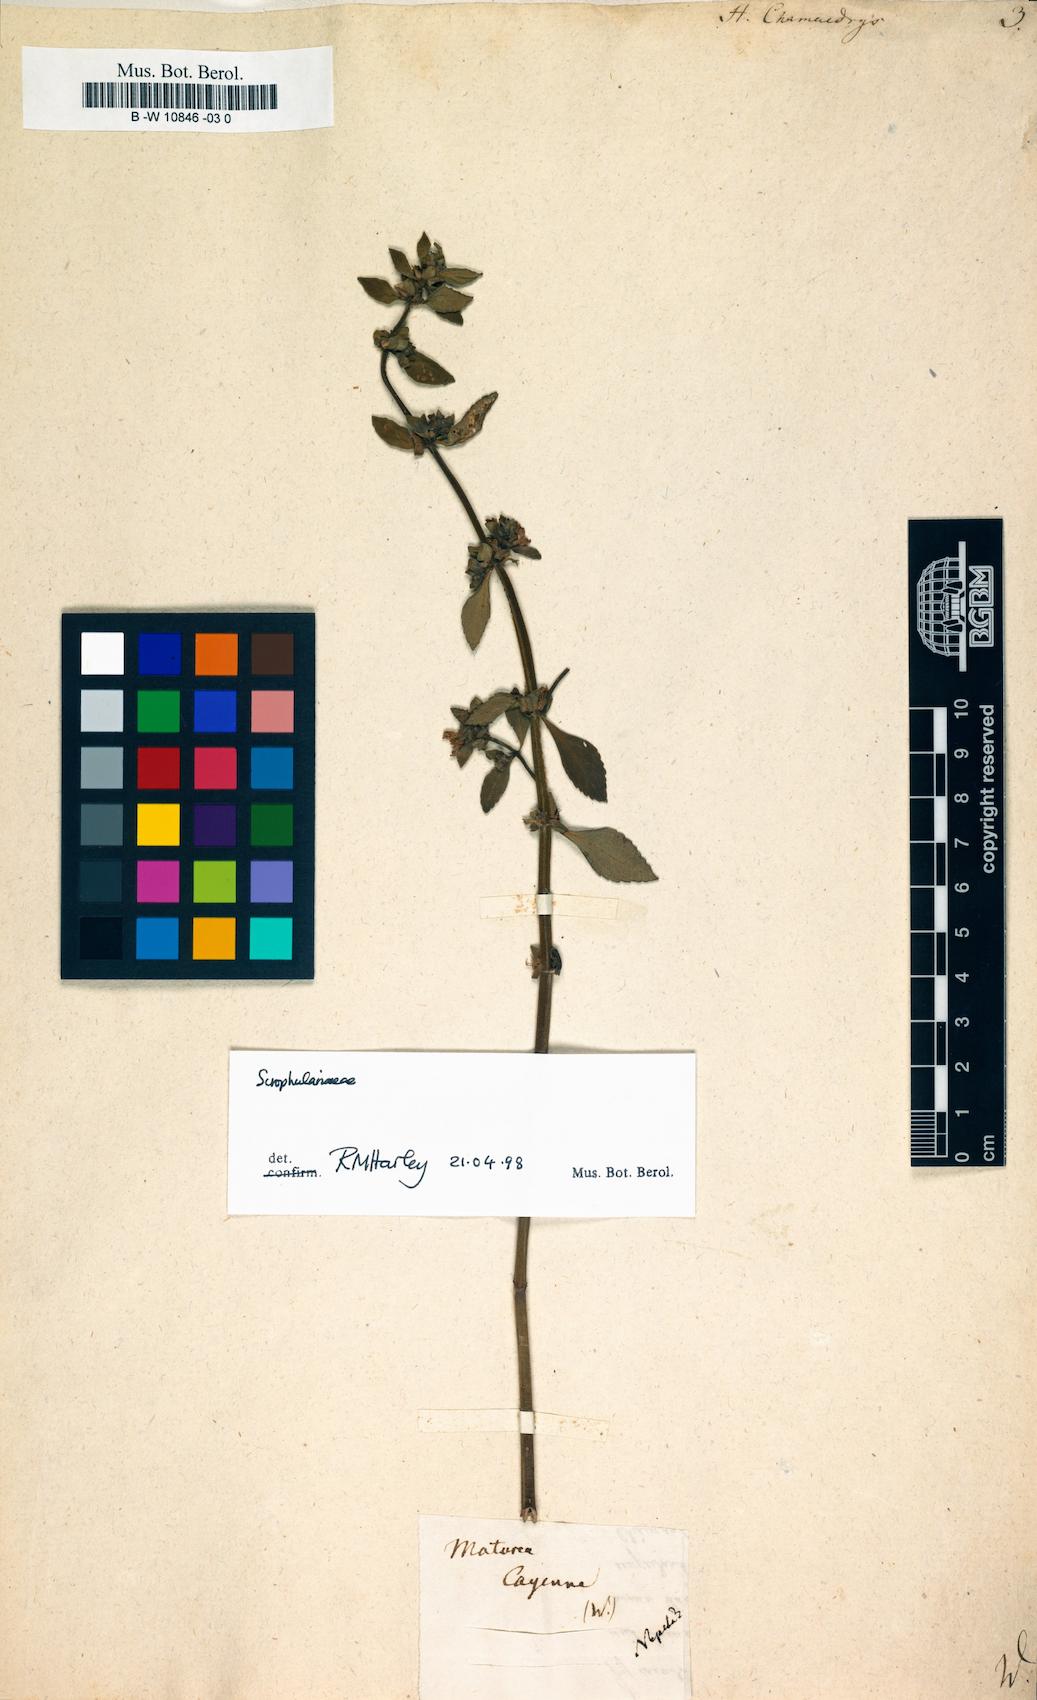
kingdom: Plantae
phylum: Tracheophyta
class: Magnoliopsida
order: Lamiales
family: Lamiaceae
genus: Marsypianthes
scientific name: Marsypianthes chamaedrys
